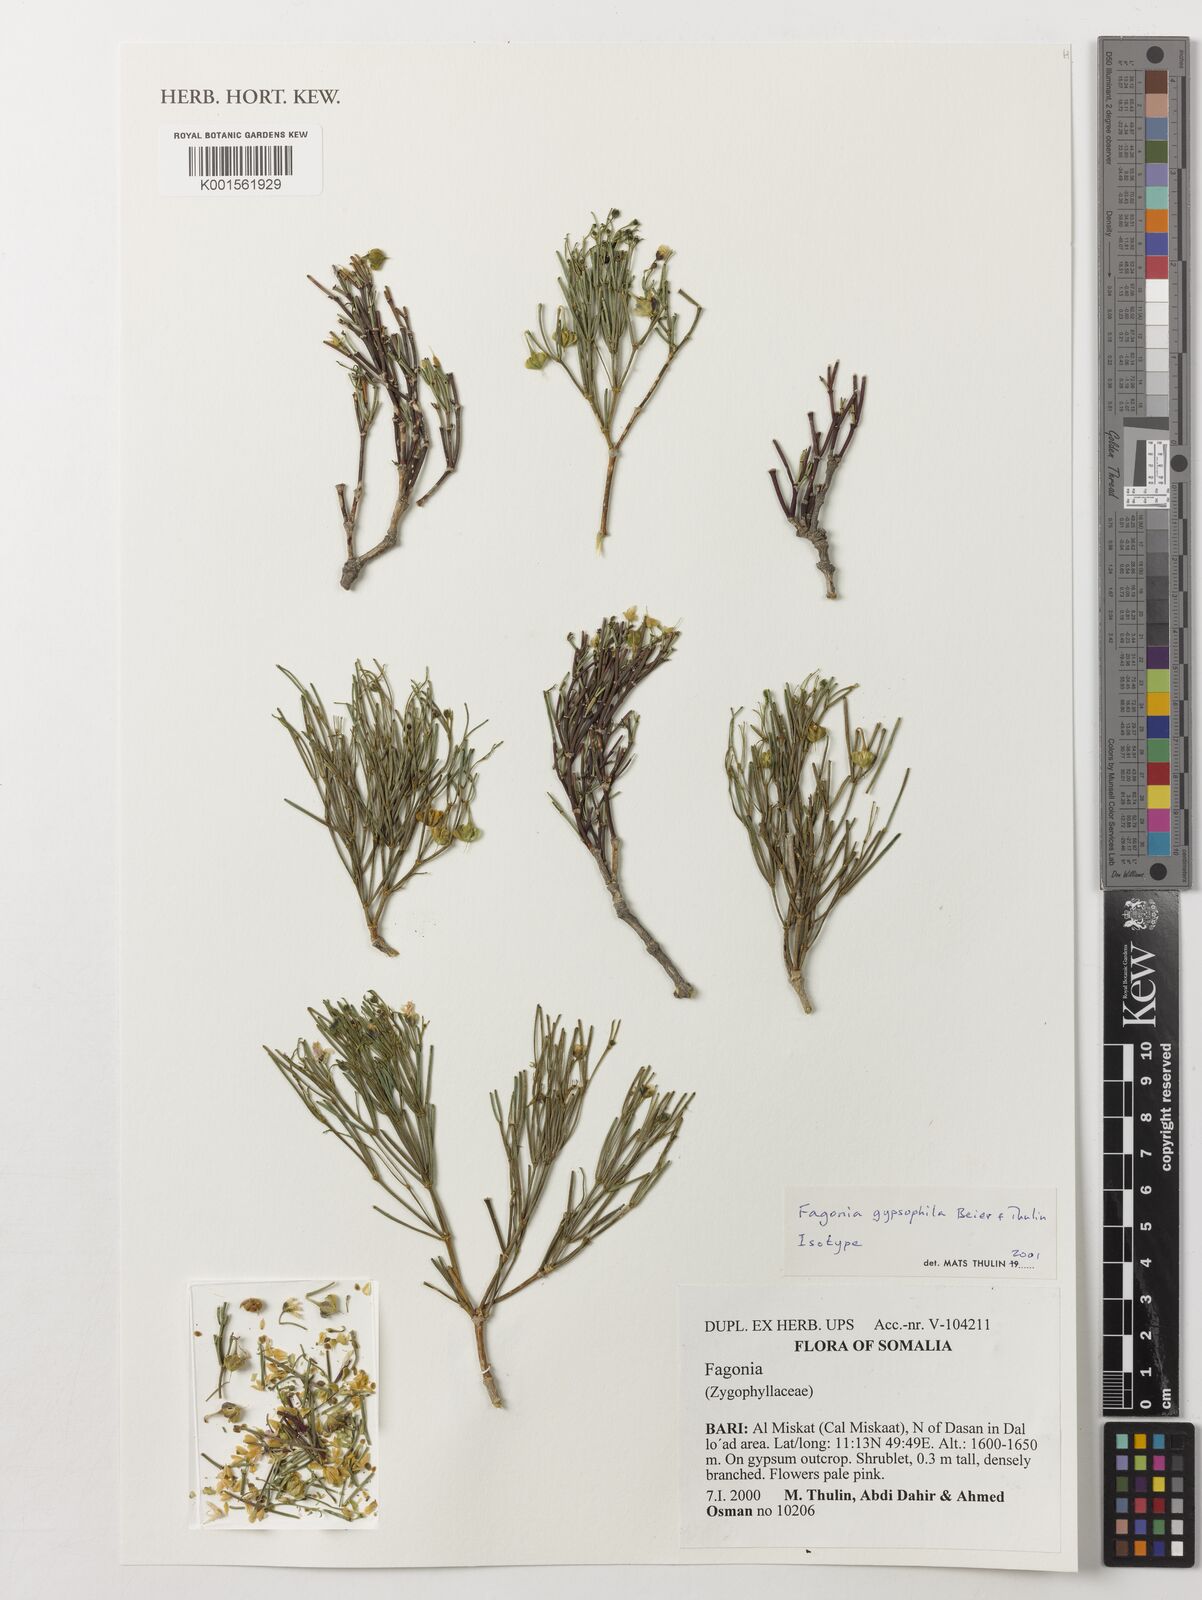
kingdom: Plantae
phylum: Tracheophyta
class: Magnoliopsida
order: Zygophyllales
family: Zygophyllaceae
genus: Fagonia
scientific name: Fagonia gypsophila
